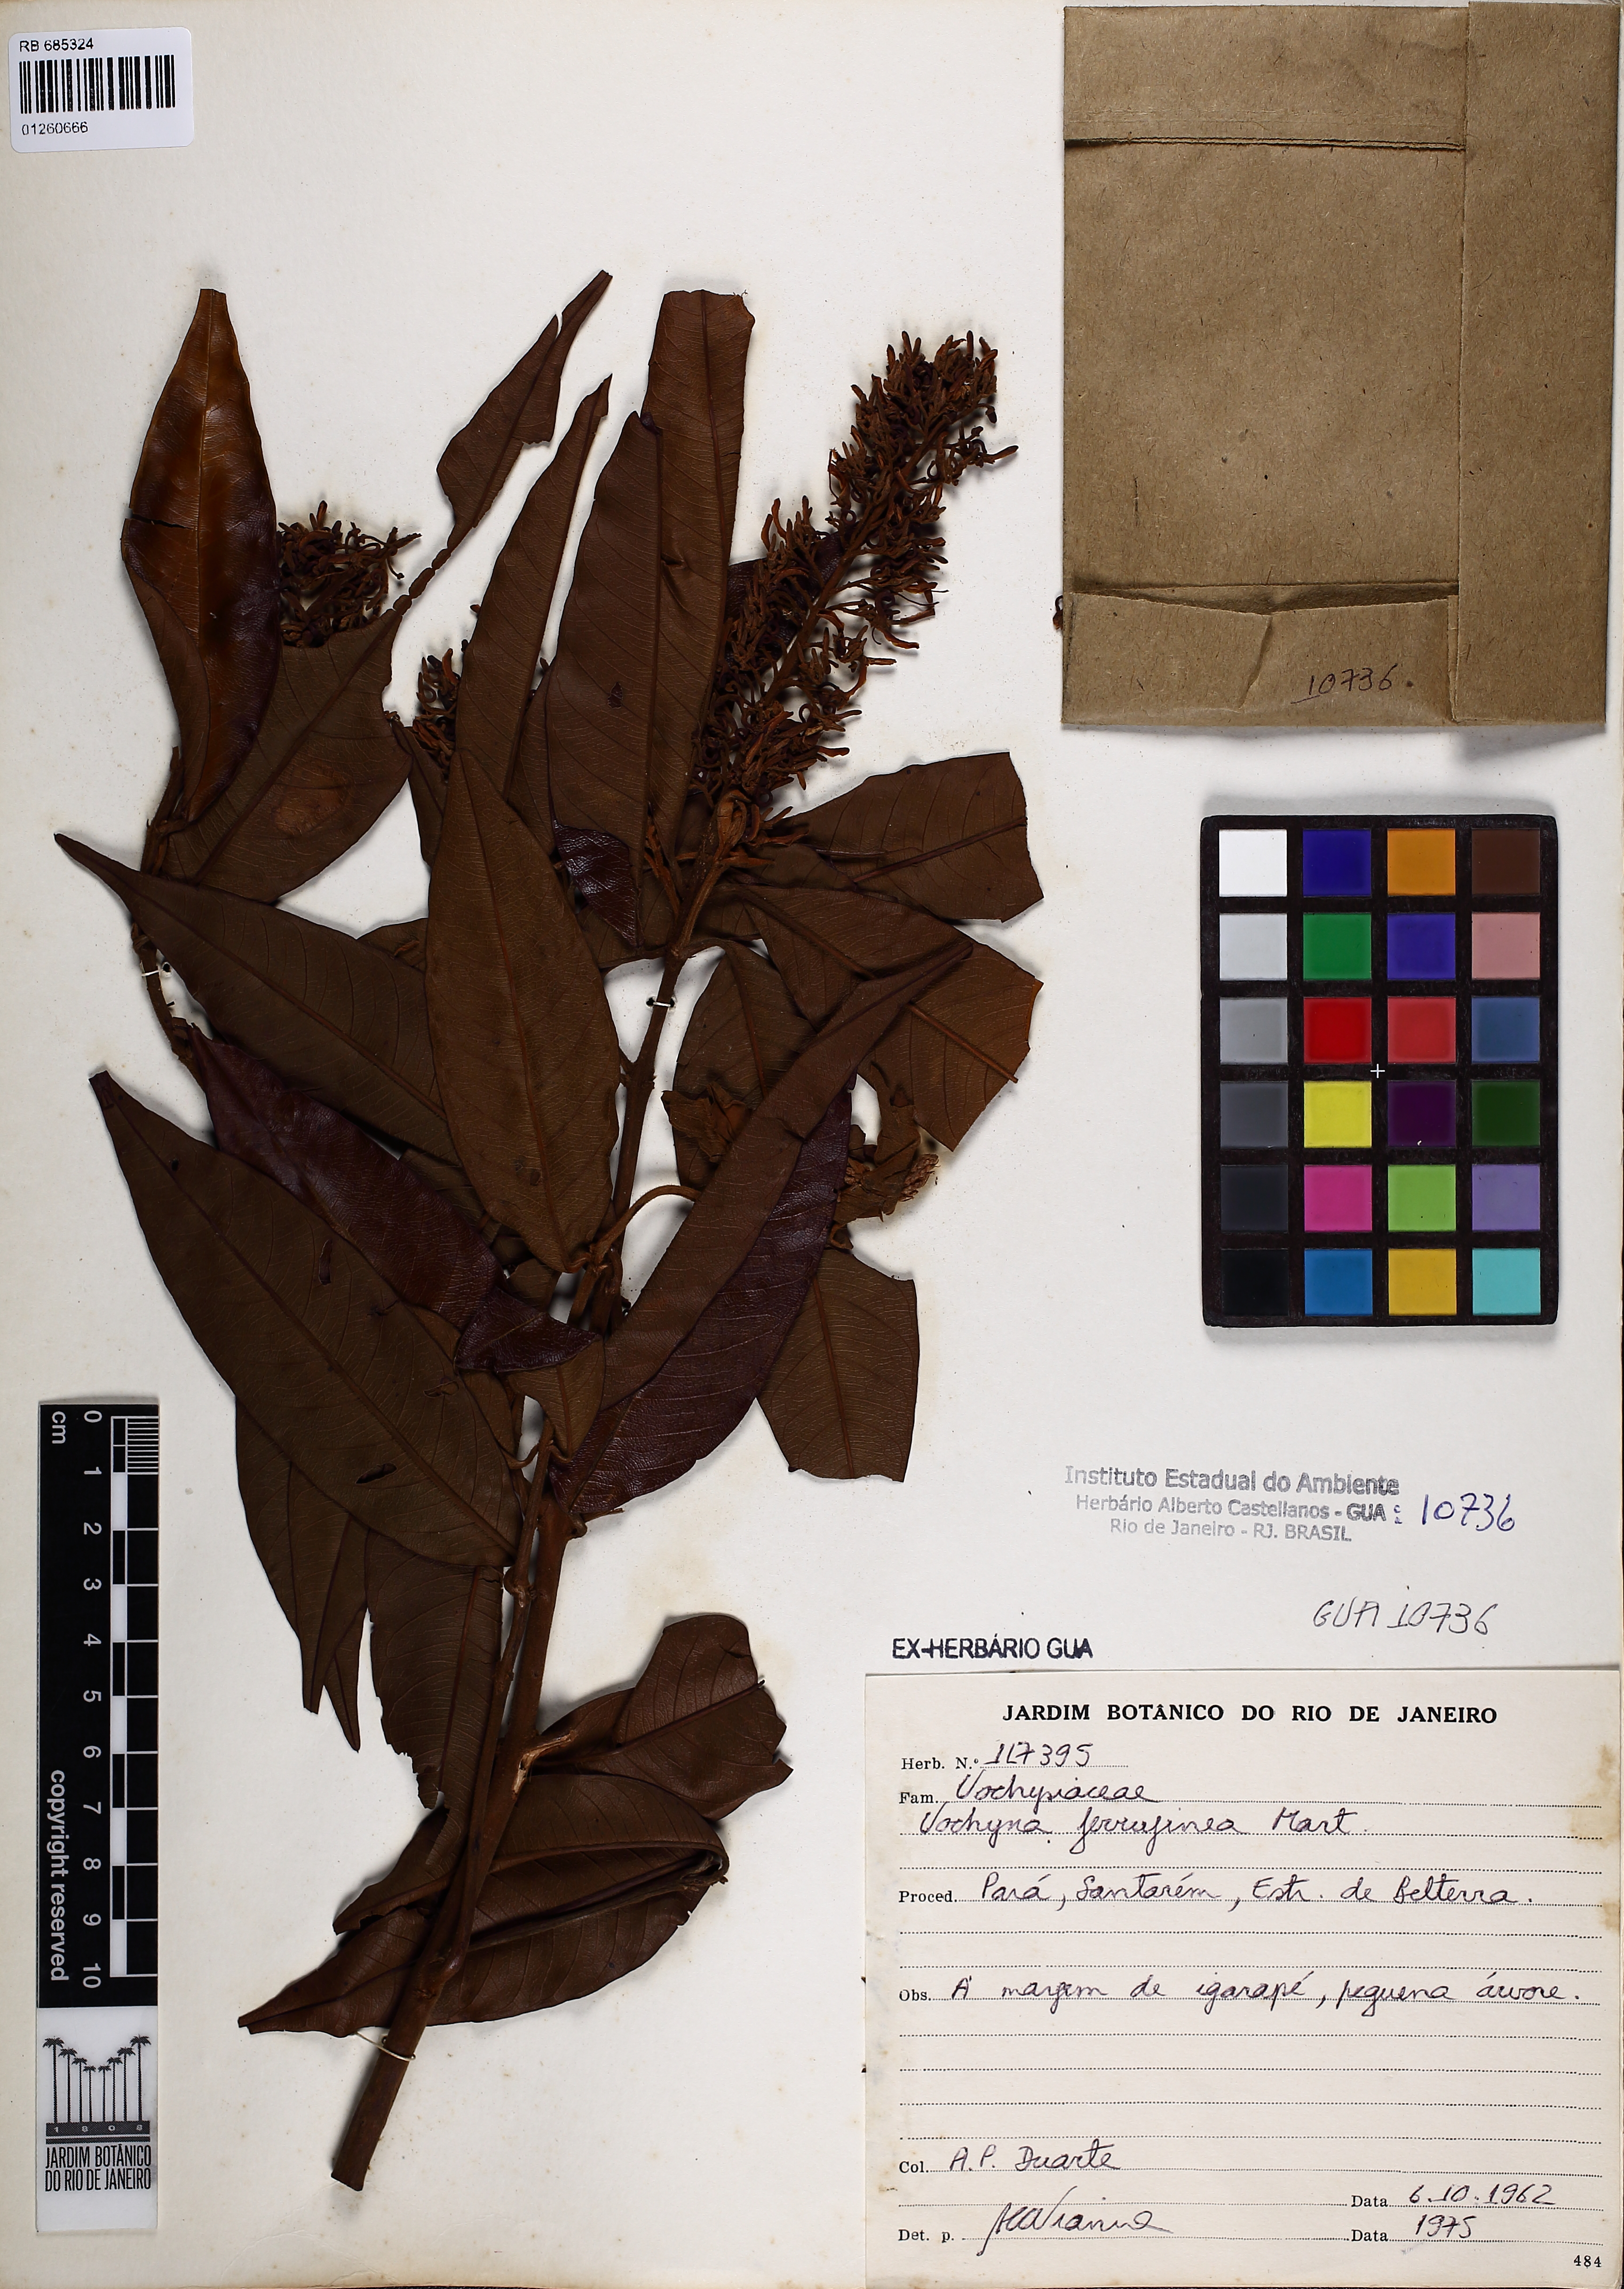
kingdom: Plantae
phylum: Tracheophyta
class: Magnoliopsida
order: Myrtales
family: Vochysiaceae
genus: Vochysia
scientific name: Vochysia ferruginea
